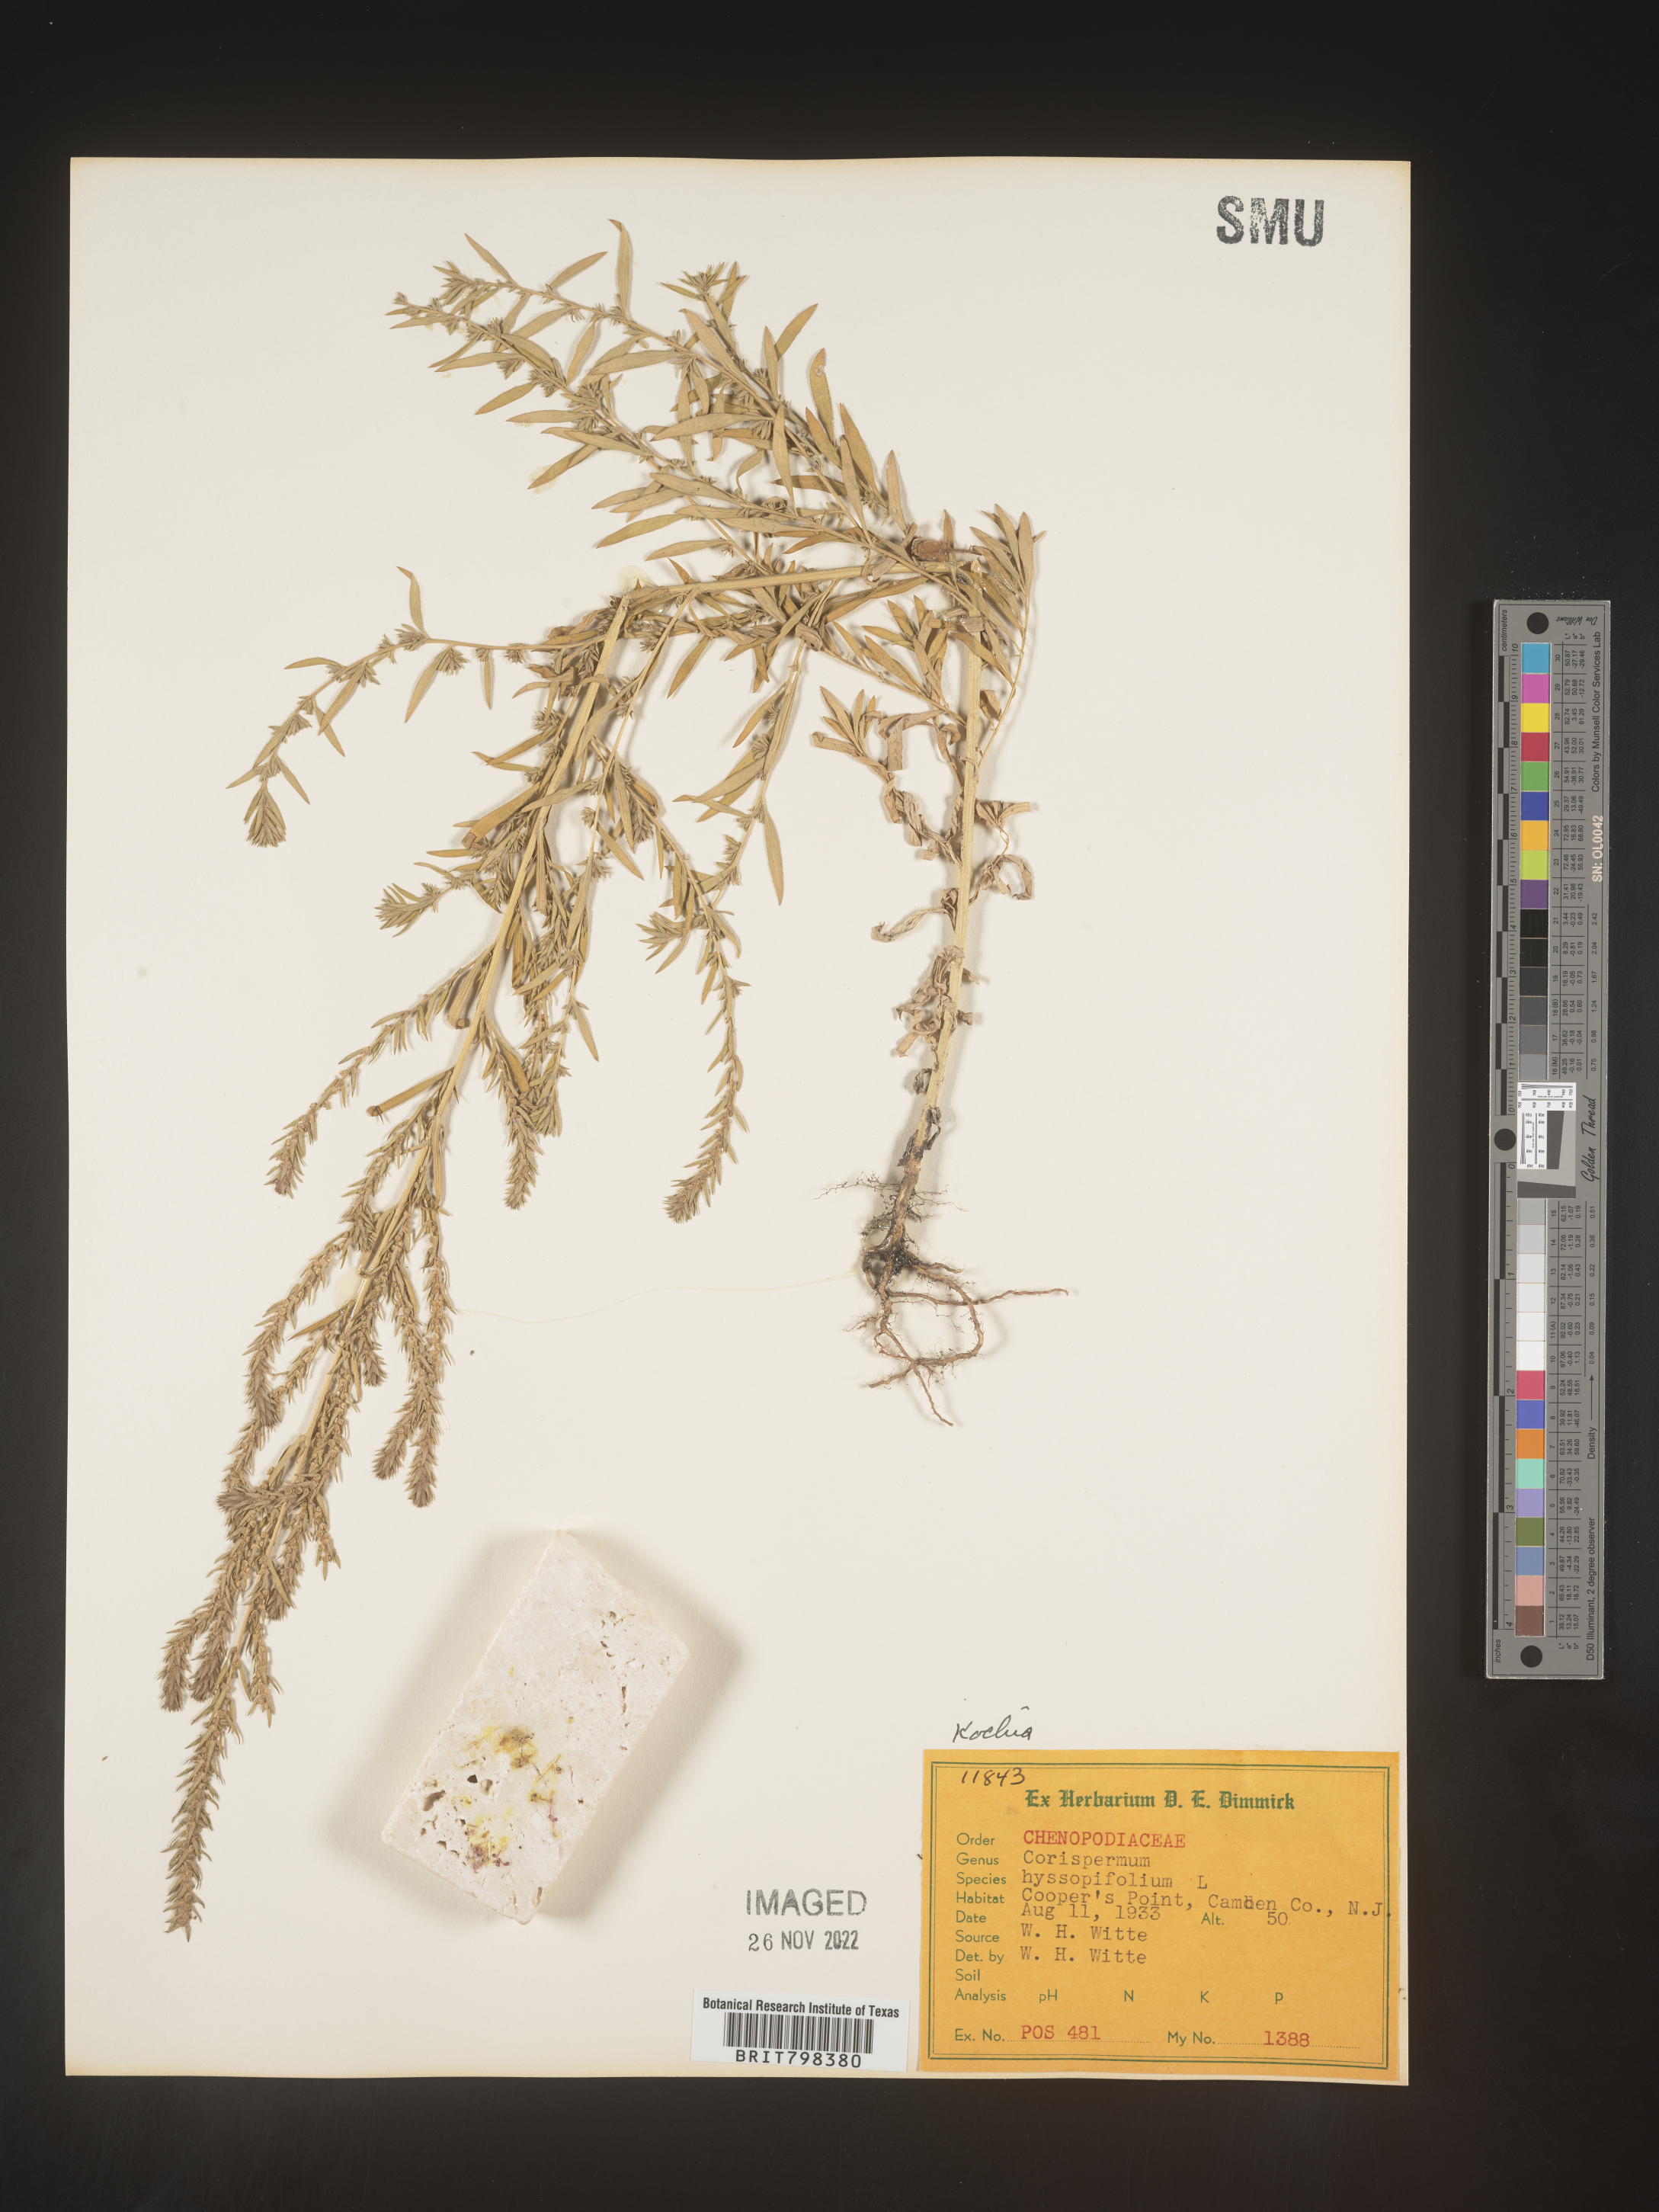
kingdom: Plantae
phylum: Tracheophyta
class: Magnoliopsida
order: Caryophyllales
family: Amaranthaceae
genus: Bassia
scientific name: Bassia scoparia
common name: Belvedere
